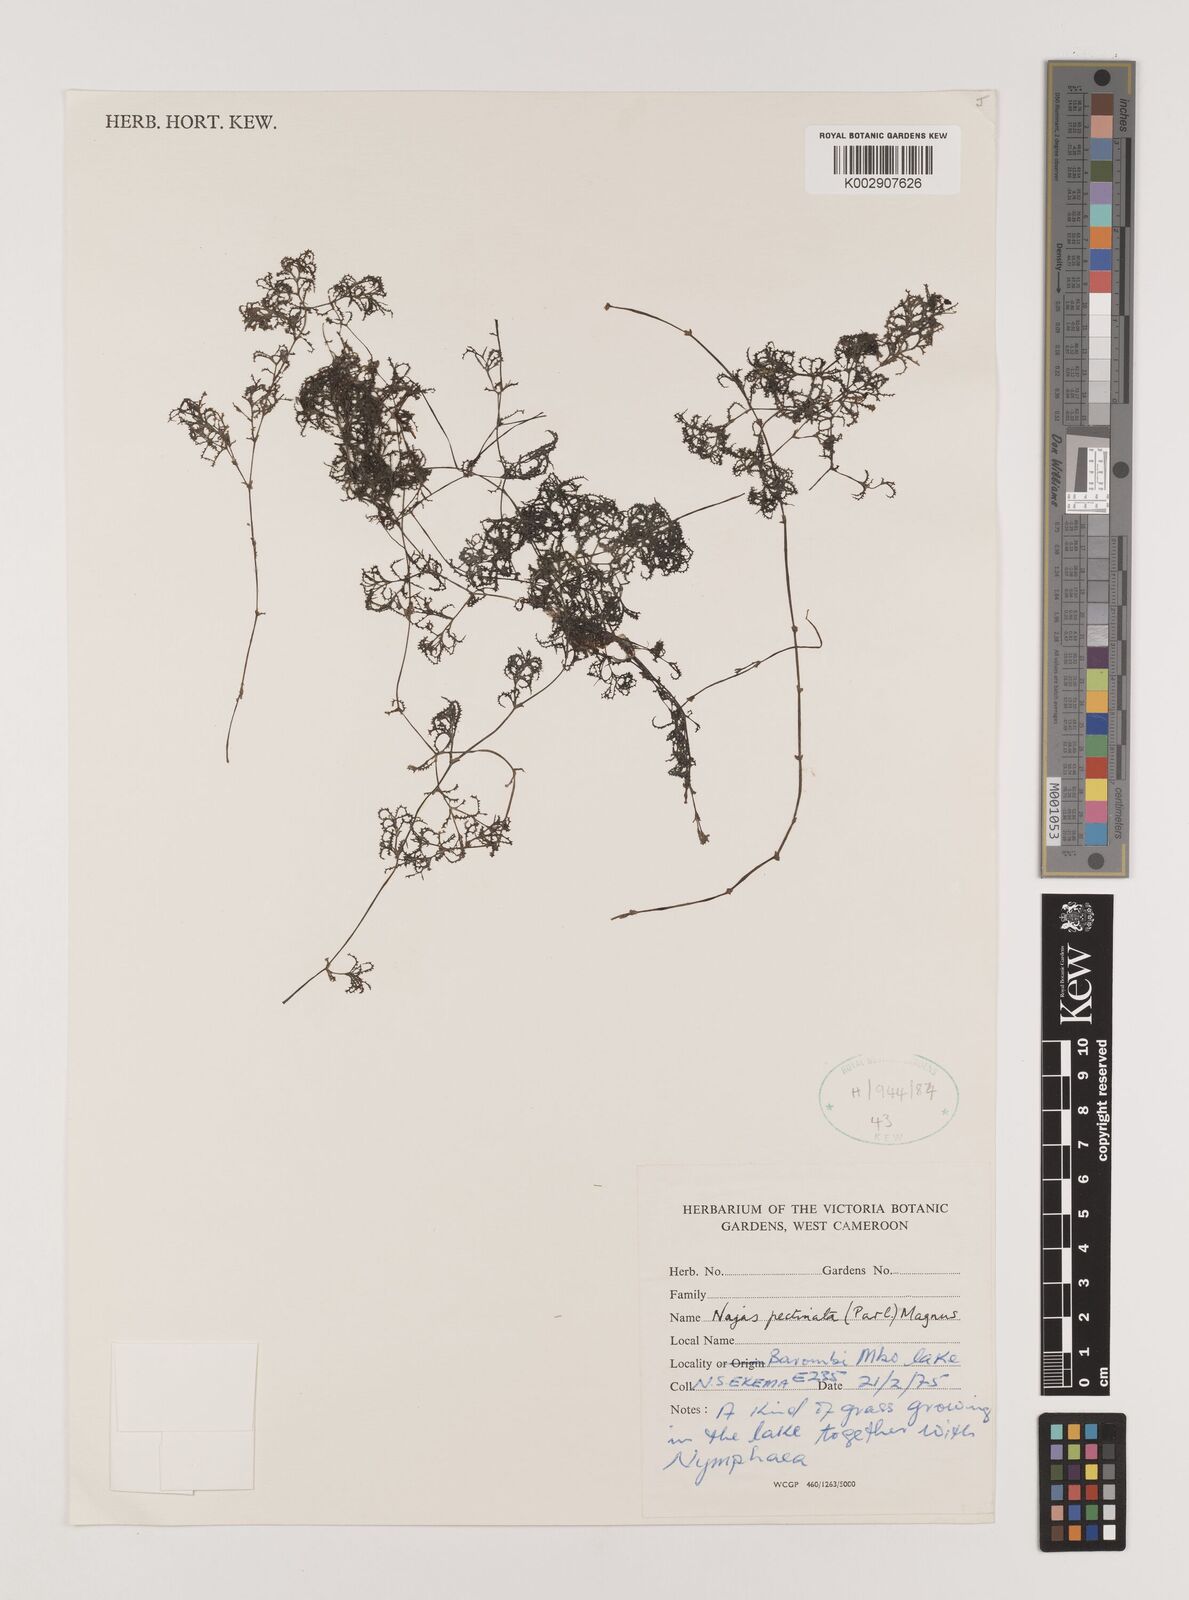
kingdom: Plantae
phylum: Tracheophyta
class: Liliopsida
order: Alismatales
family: Hydrocharitaceae
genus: Najas
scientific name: Najas pectinata
